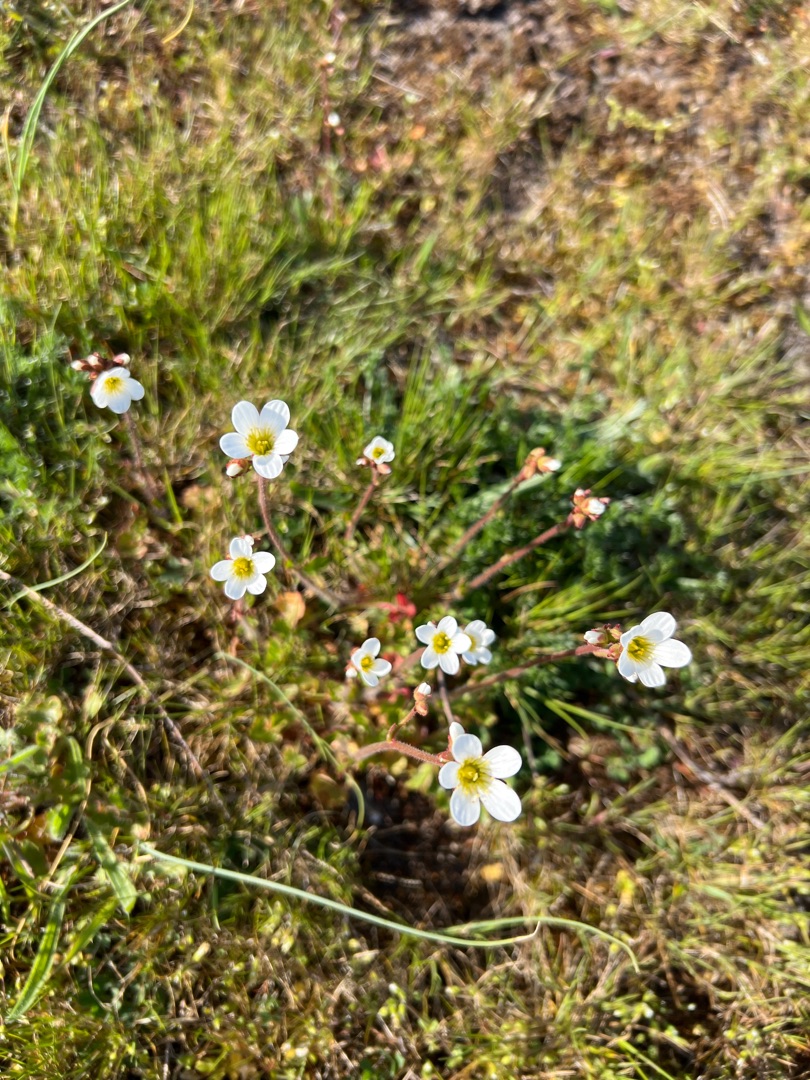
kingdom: Plantae
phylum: Tracheophyta
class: Magnoliopsida
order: Saxifragales
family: Saxifragaceae
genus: Saxifraga
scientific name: Saxifraga granulata
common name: Kornet stenbræk
